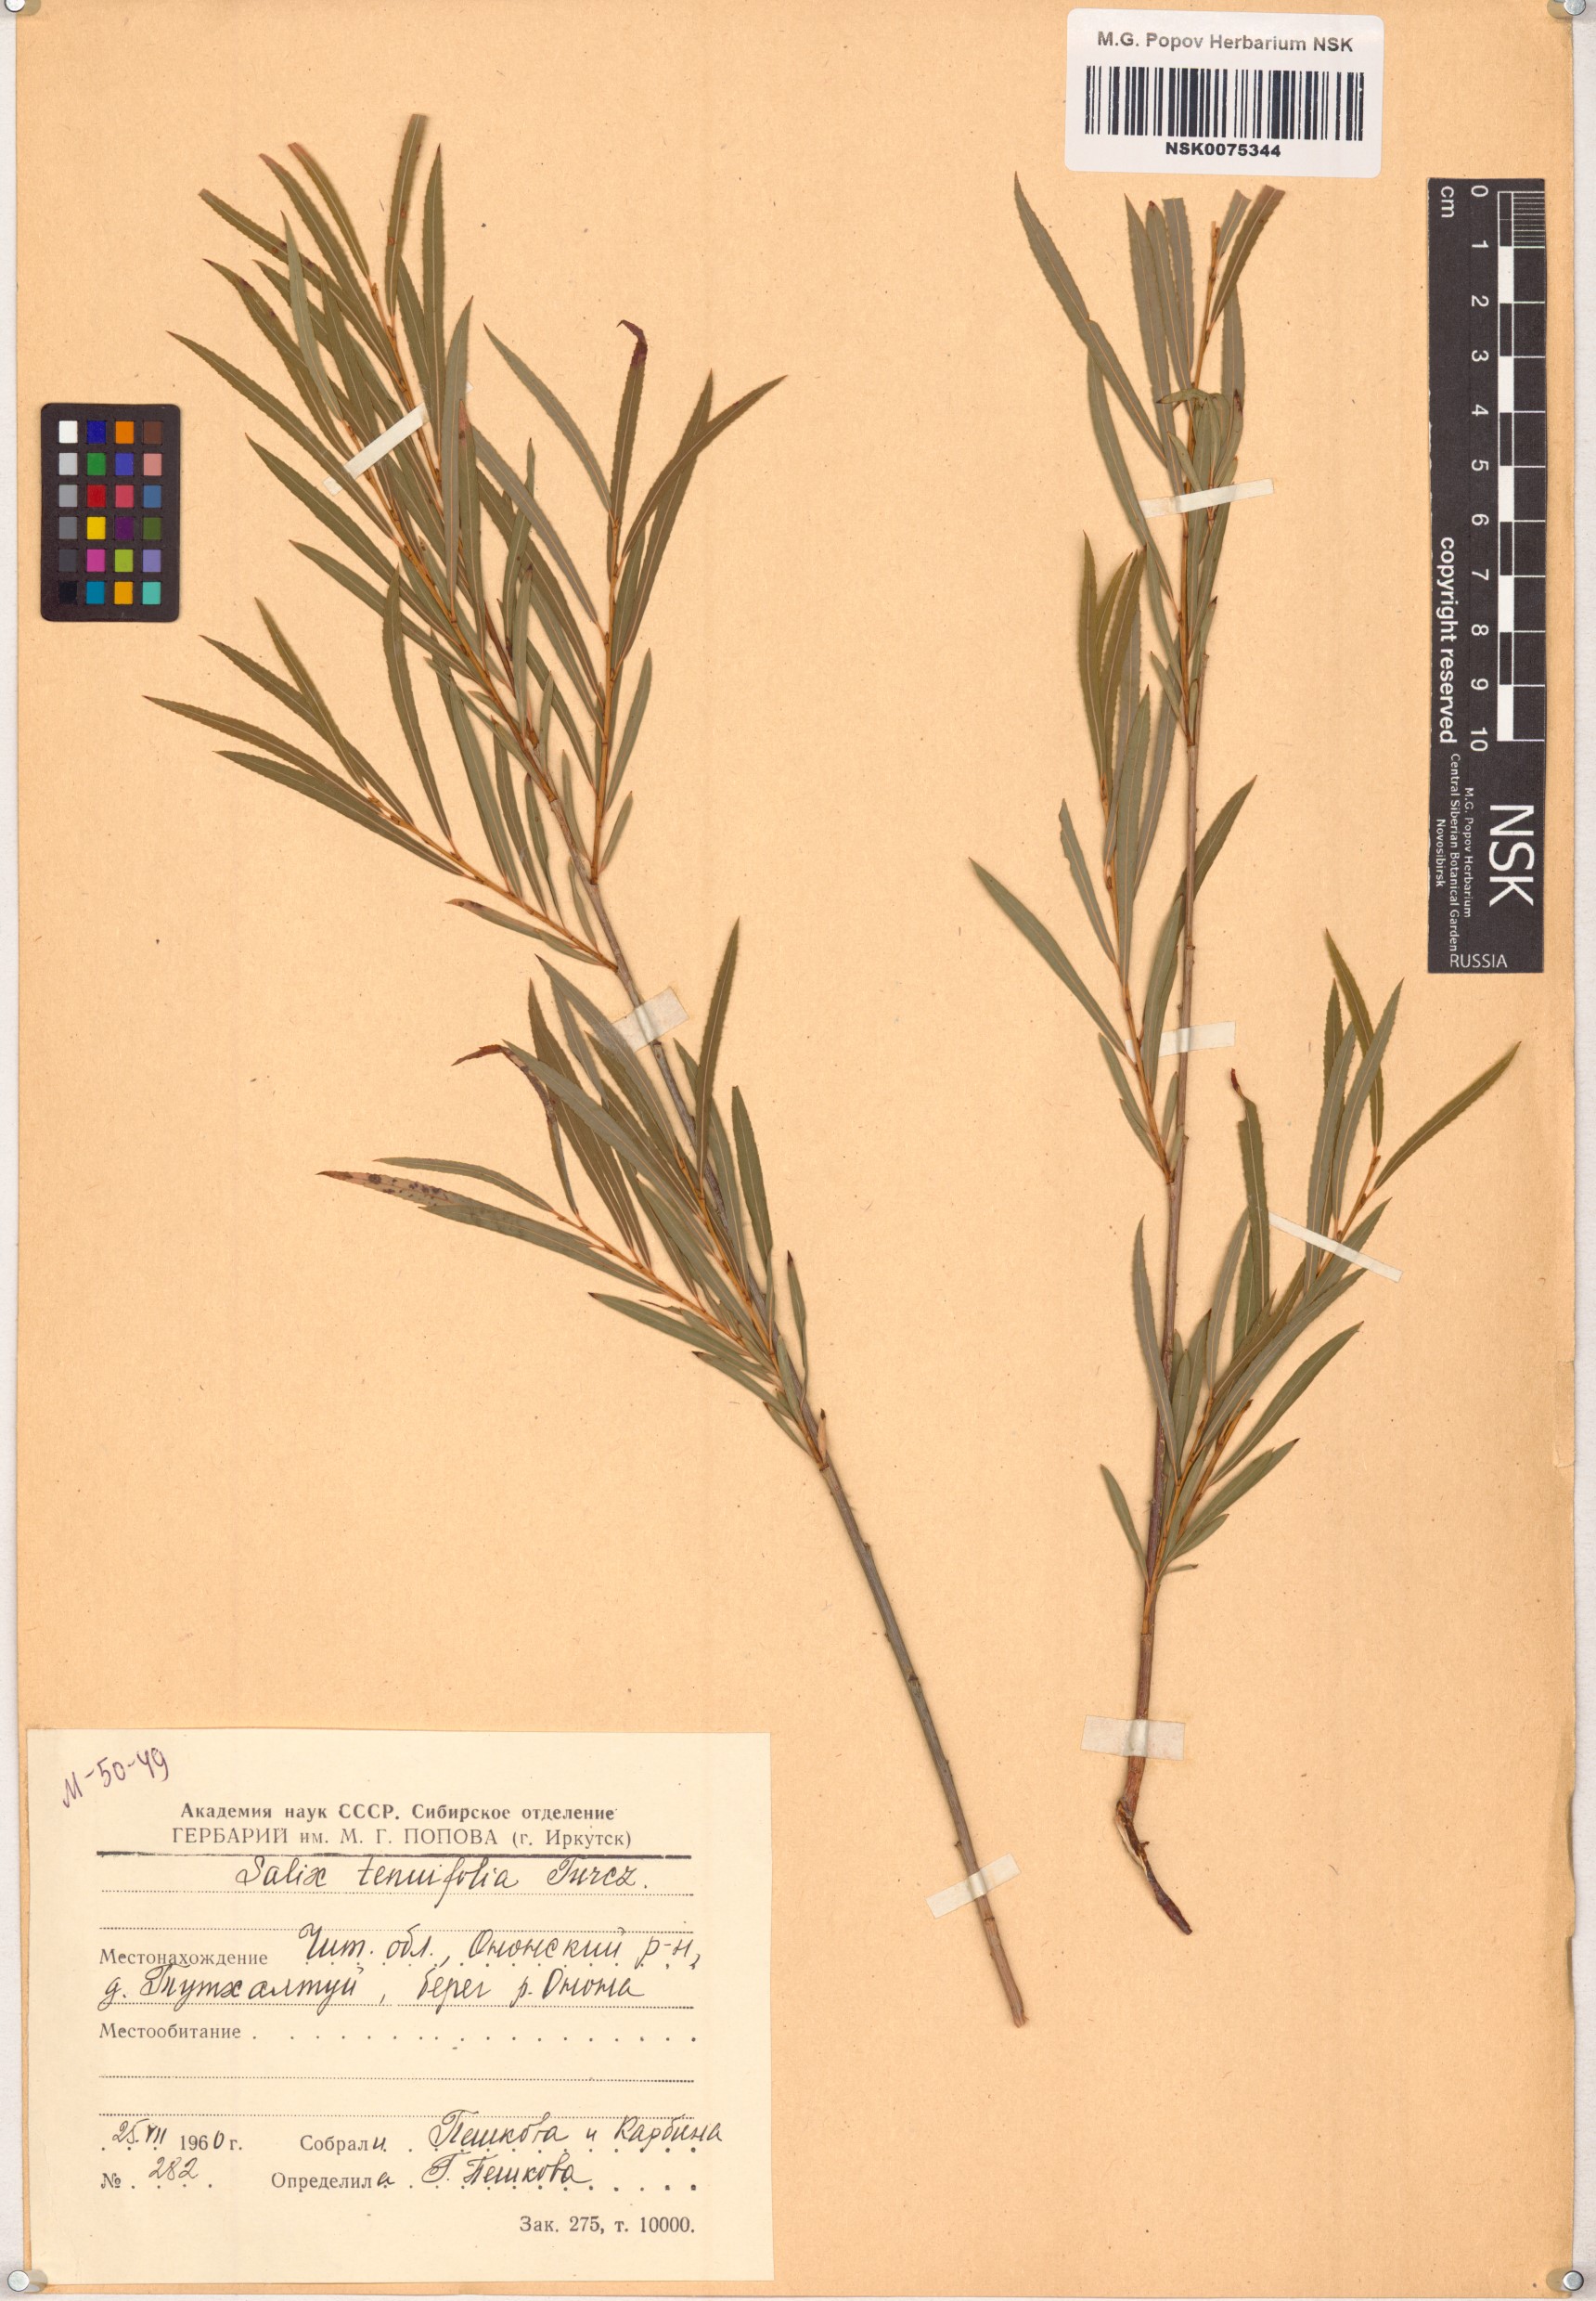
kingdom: Plantae
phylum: Tracheophyta
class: Magnoliopsida
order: Malpighiales
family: Salicaceae
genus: Salix
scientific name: Salix
